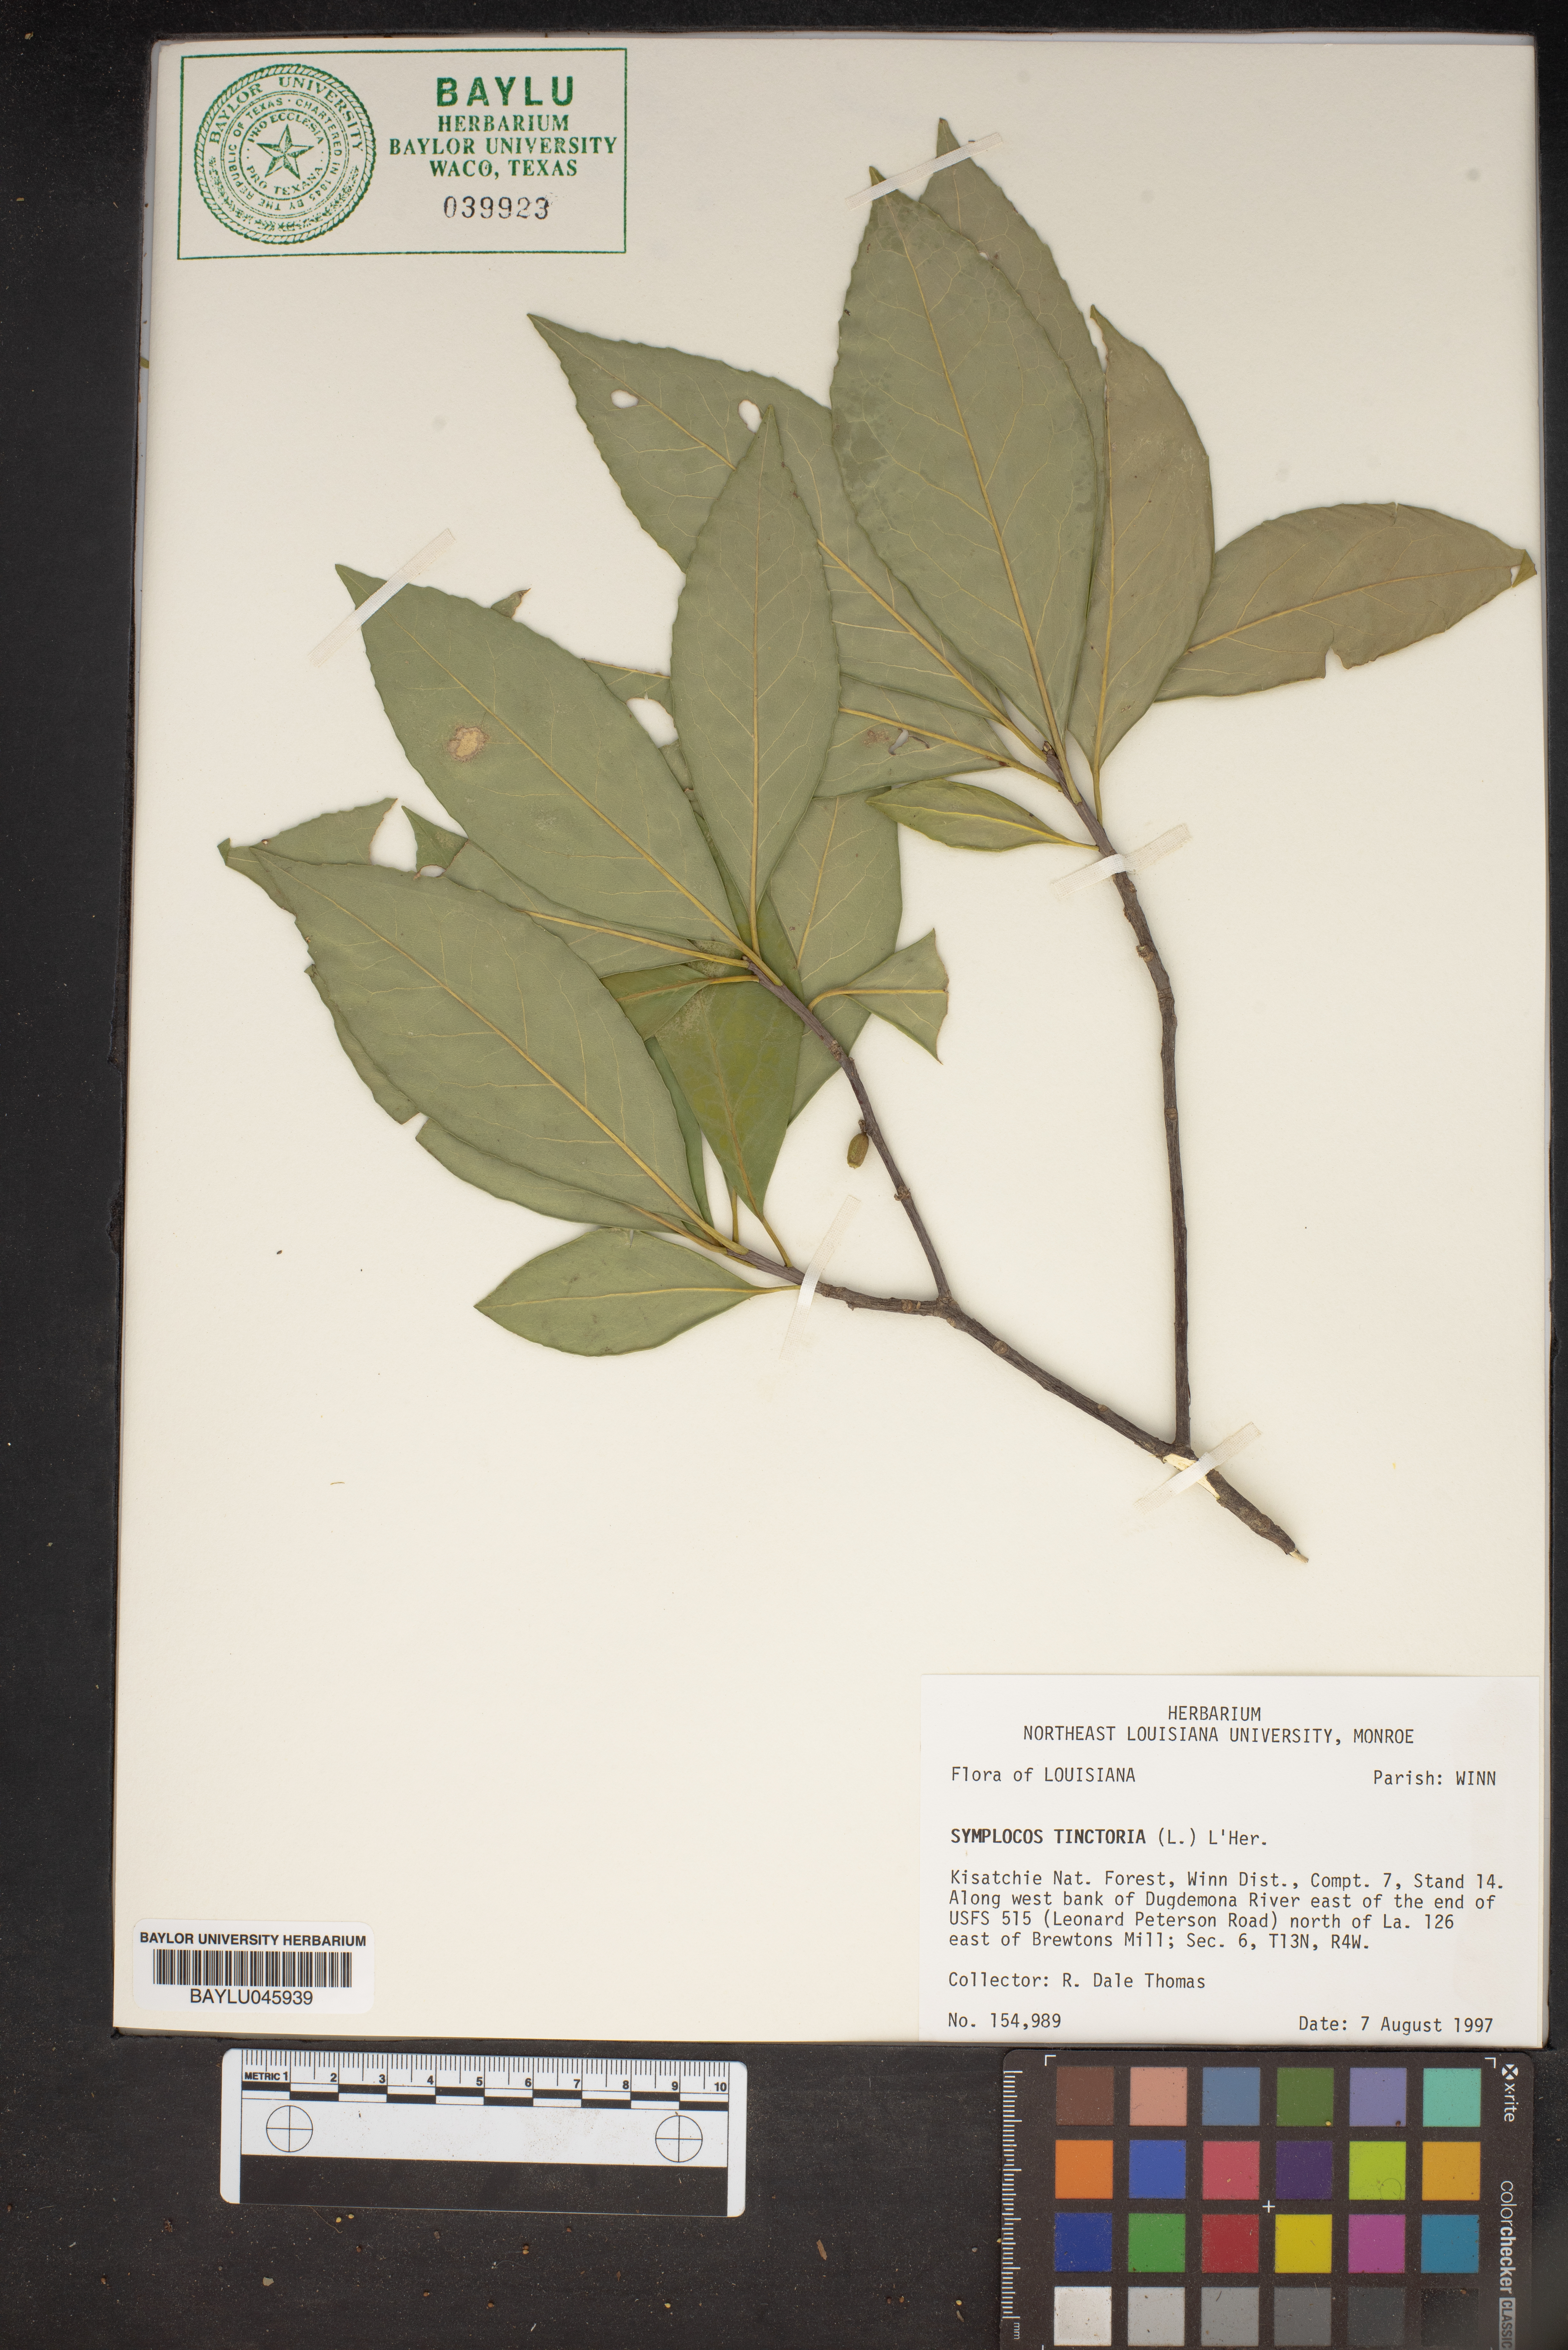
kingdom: Plantae
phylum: Tracheophyta
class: Magnoliopsida
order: Ericales
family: Symplocaceae
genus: Symplocos
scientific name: Symplocos tinctoria
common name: Horse-sugar
